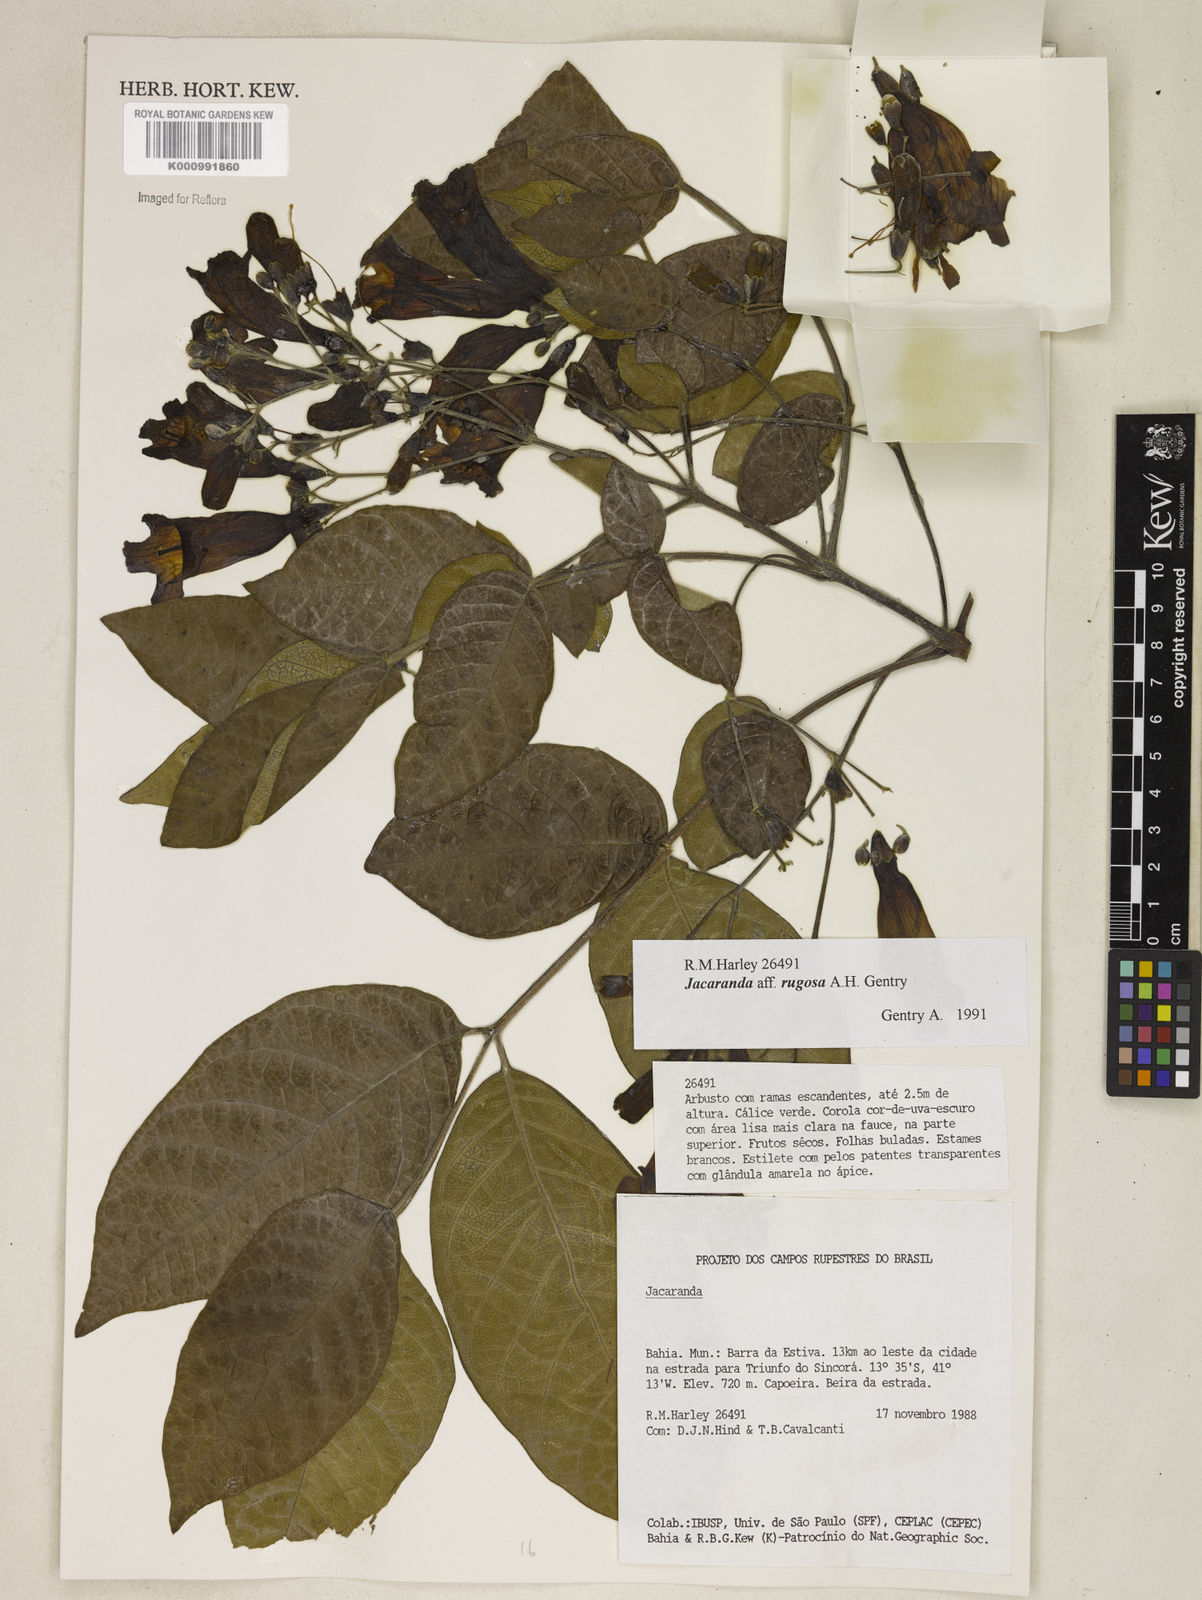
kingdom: Plantae
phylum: Tracheophyta
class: Magnoliopsida
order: Lamiales
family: Bignoniaceae
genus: Jacaranda
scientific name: Jacaranda rugosa
